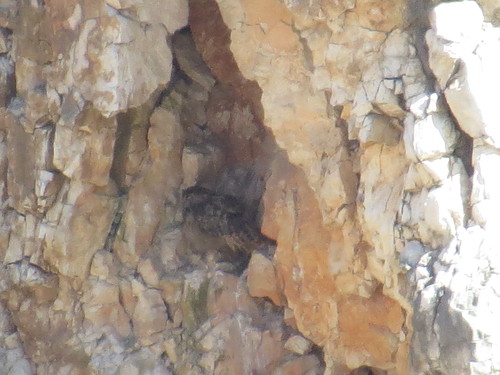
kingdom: Animalia
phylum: Chordata
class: Aves
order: Strigiformes
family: Strigidae
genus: Bubo
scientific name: Bubo bubo
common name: Eurasian eagle-owl
